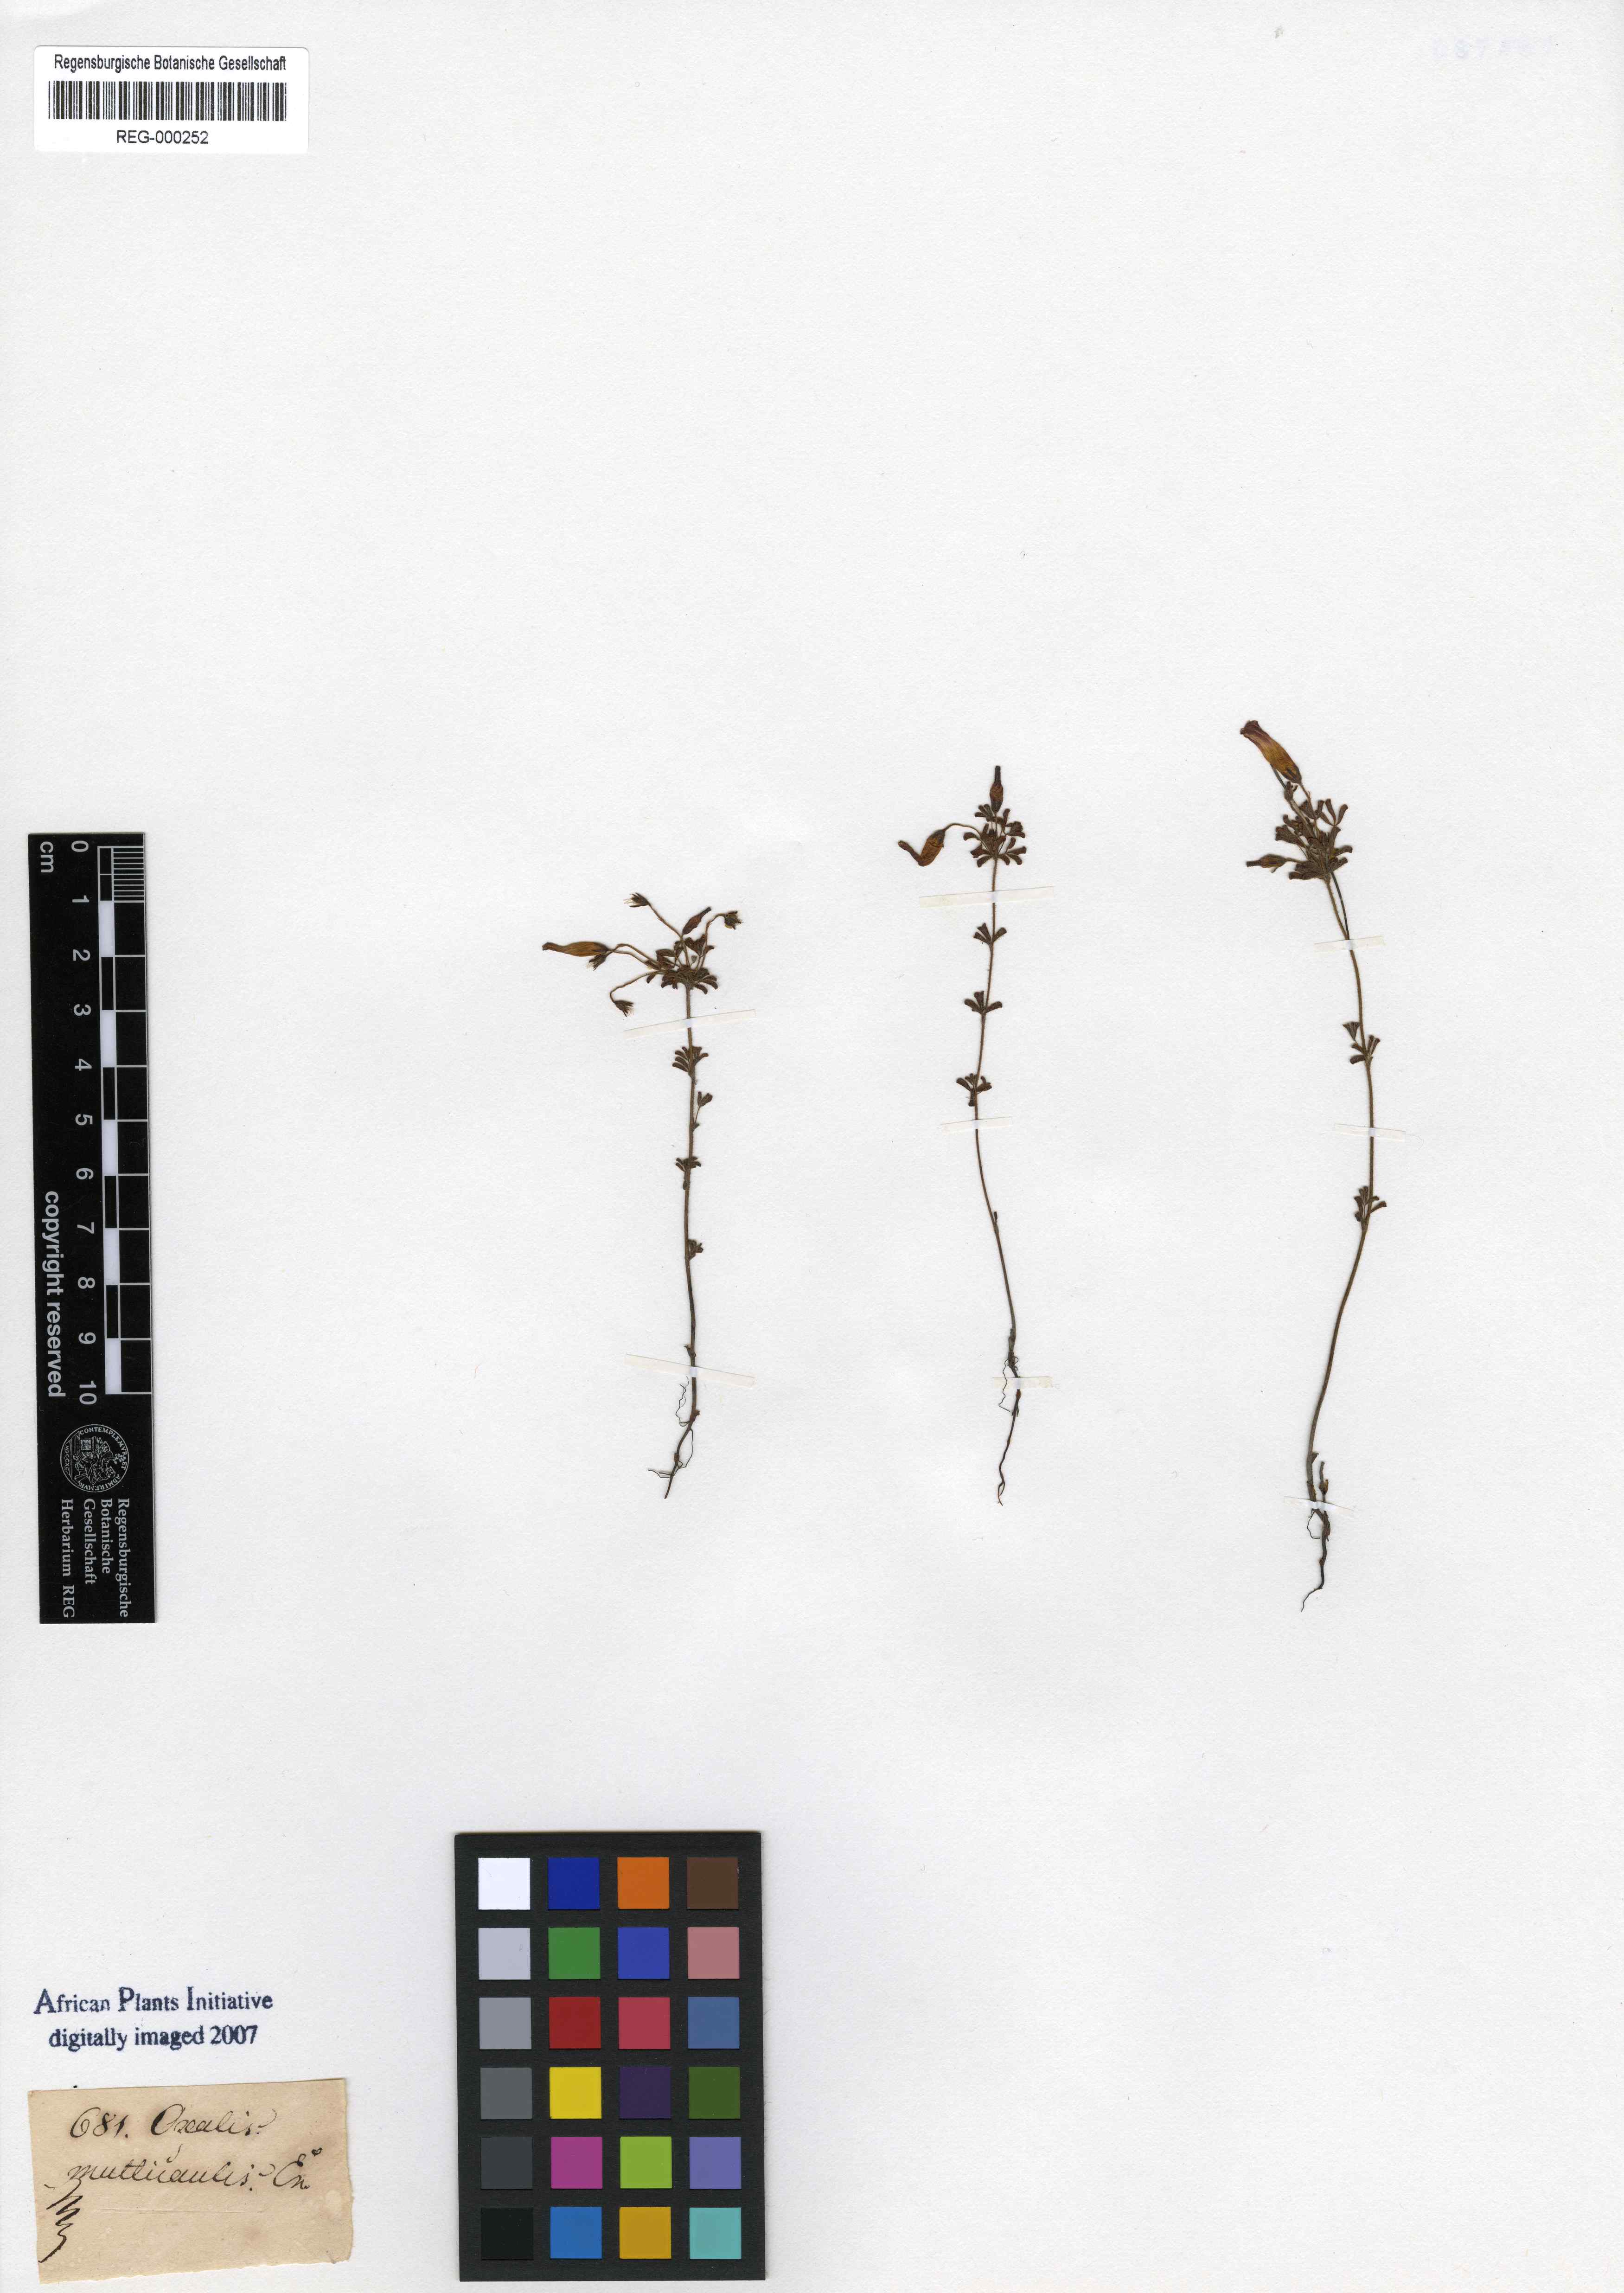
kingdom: Plantae
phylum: Tracheophyta
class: Magnoliopsida
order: Oxalidales
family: Oxalidaceae
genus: Oxalis
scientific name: Oxalis multicaulis
